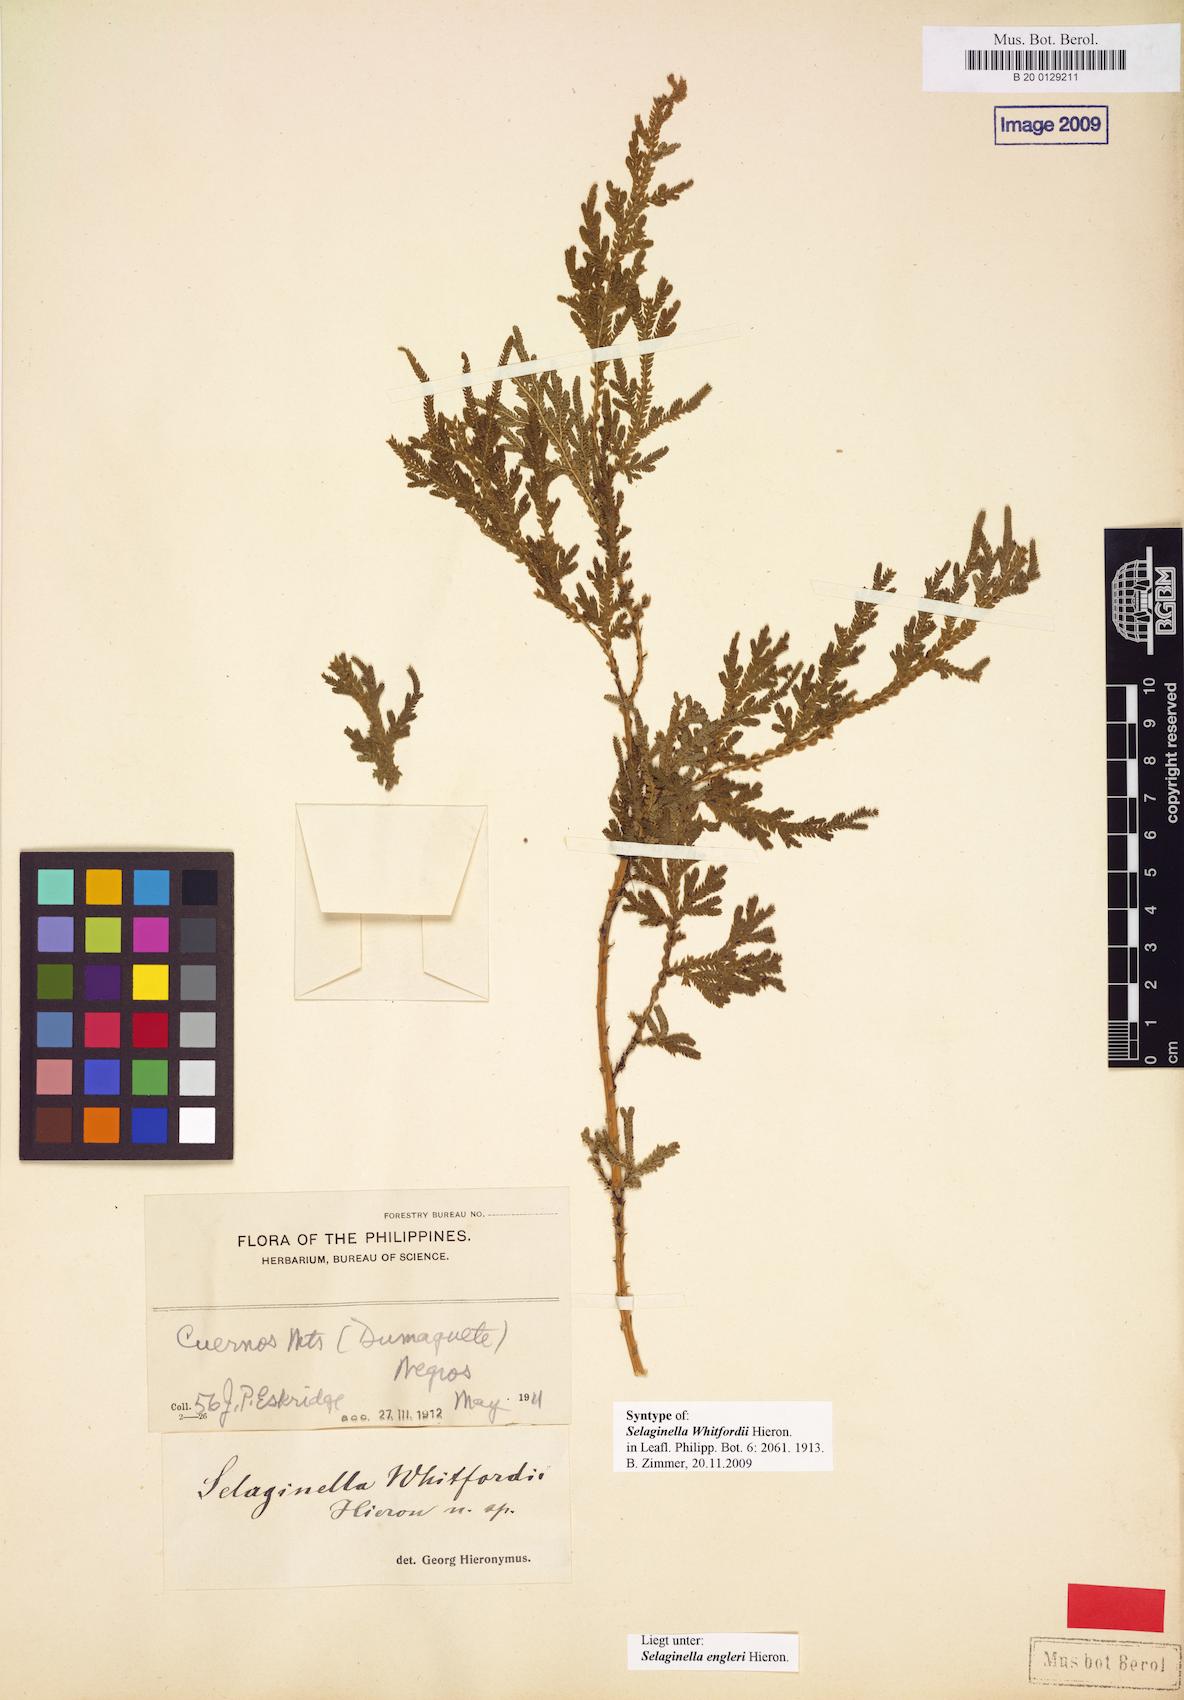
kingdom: Plantae
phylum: Tracheophyta
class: Lycopodiopsida
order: Selaginellales
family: Selaginellaceae
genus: Selaginella
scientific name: Selaginella engleri
